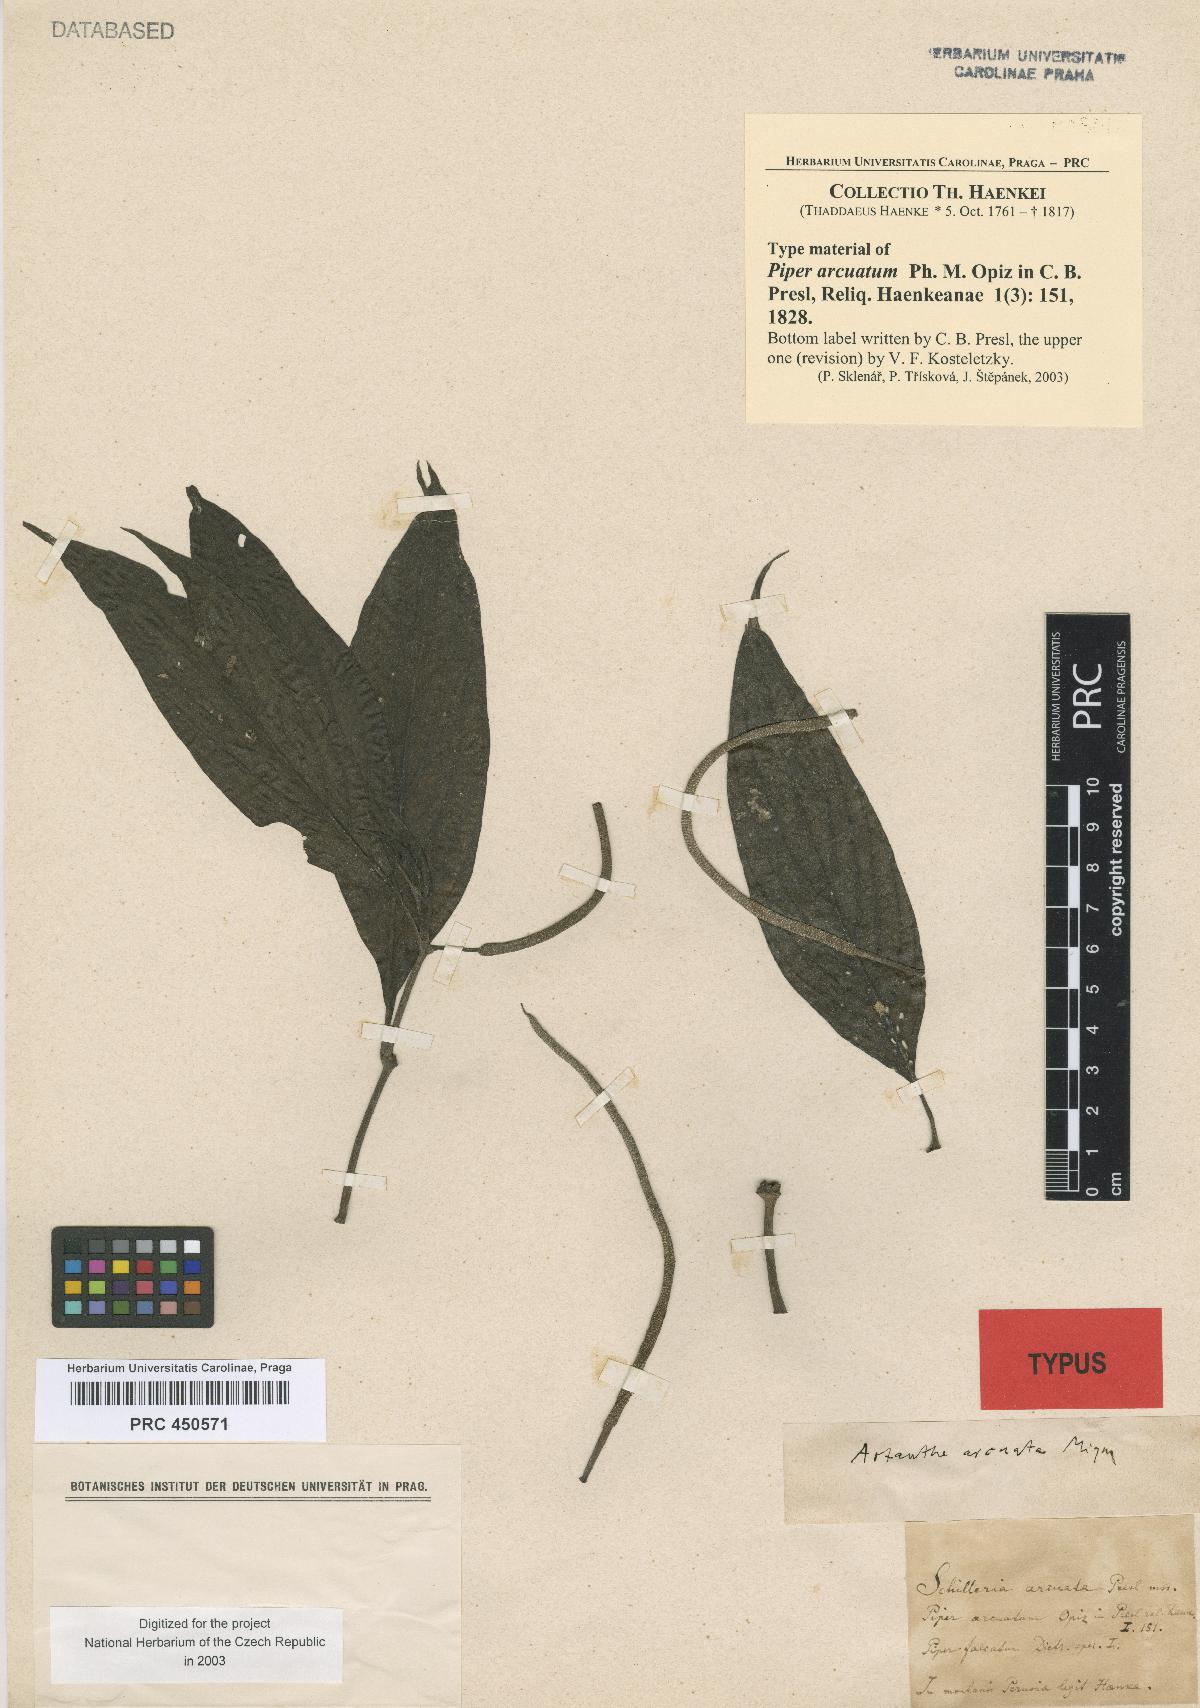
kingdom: Plantae
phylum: Tracheophyta
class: Magnoliopsida
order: Piperales
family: Piperaceae
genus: Piper
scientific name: Piper opizianum
